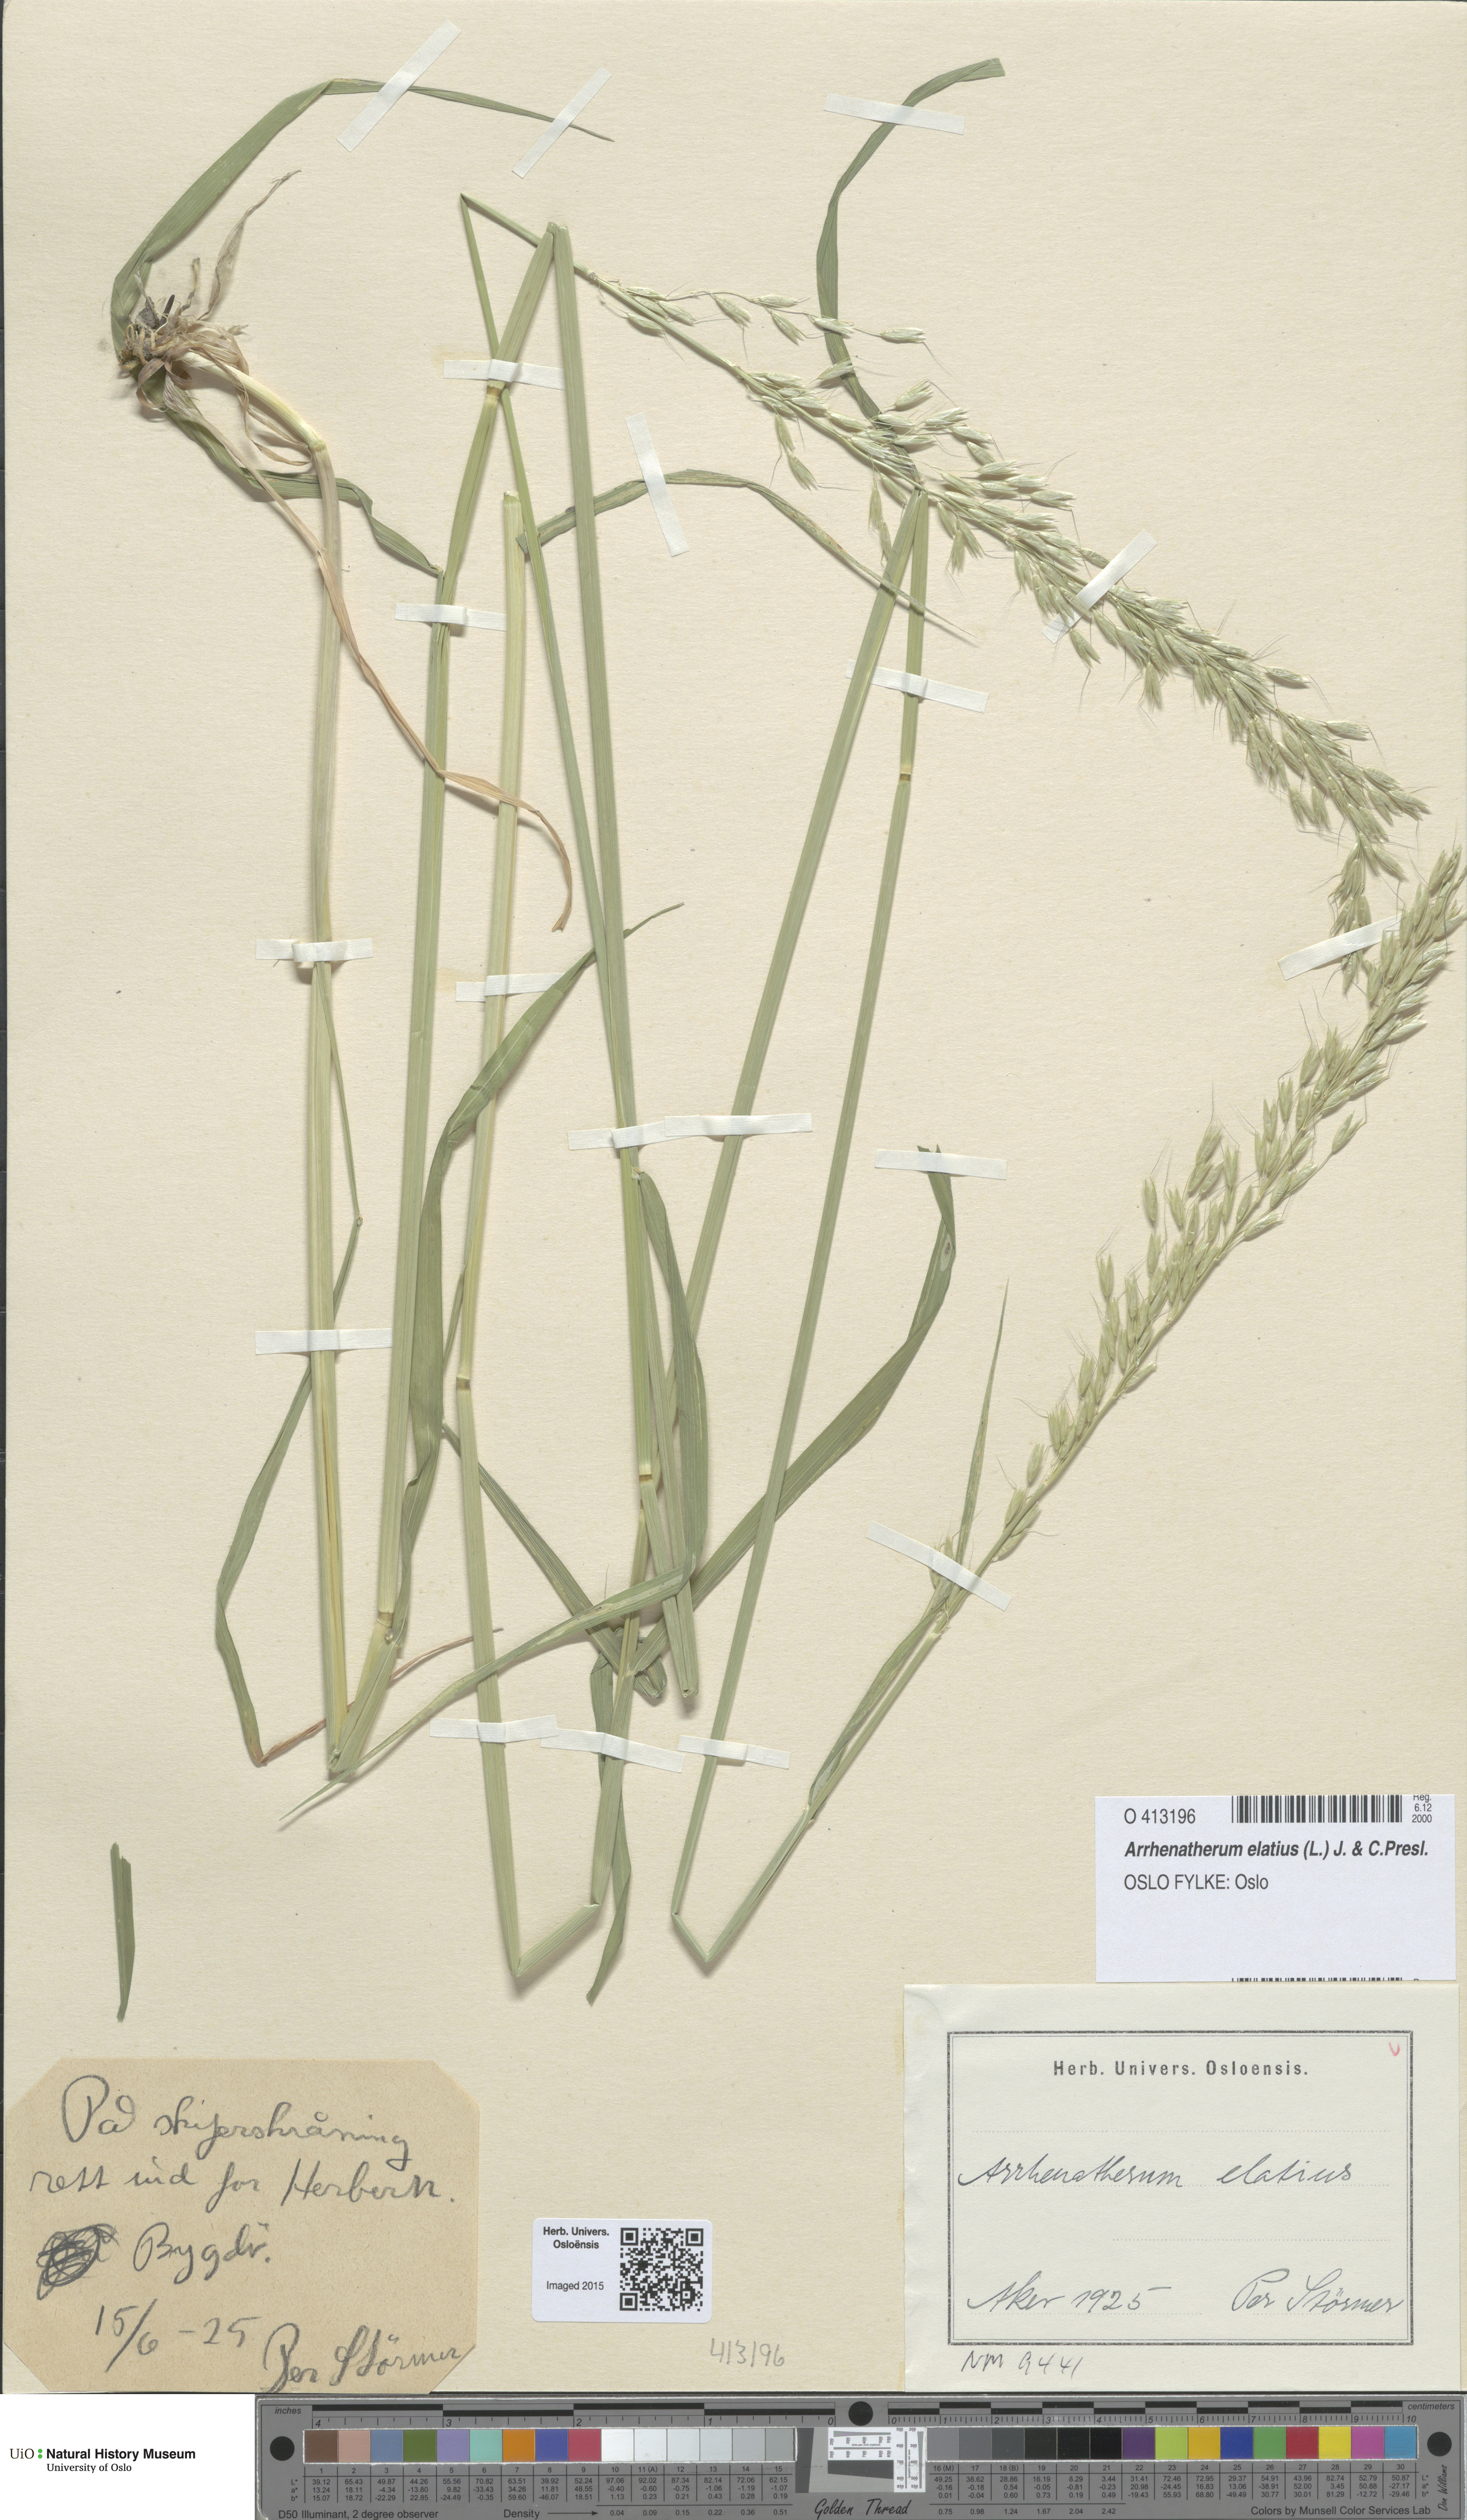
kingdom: Plantae
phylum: Tracheophyta
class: Liliopsida
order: Poales
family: Poaceae
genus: Arrhenatherum
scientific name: Arrhenatherum elatius
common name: Tall oatgrass
